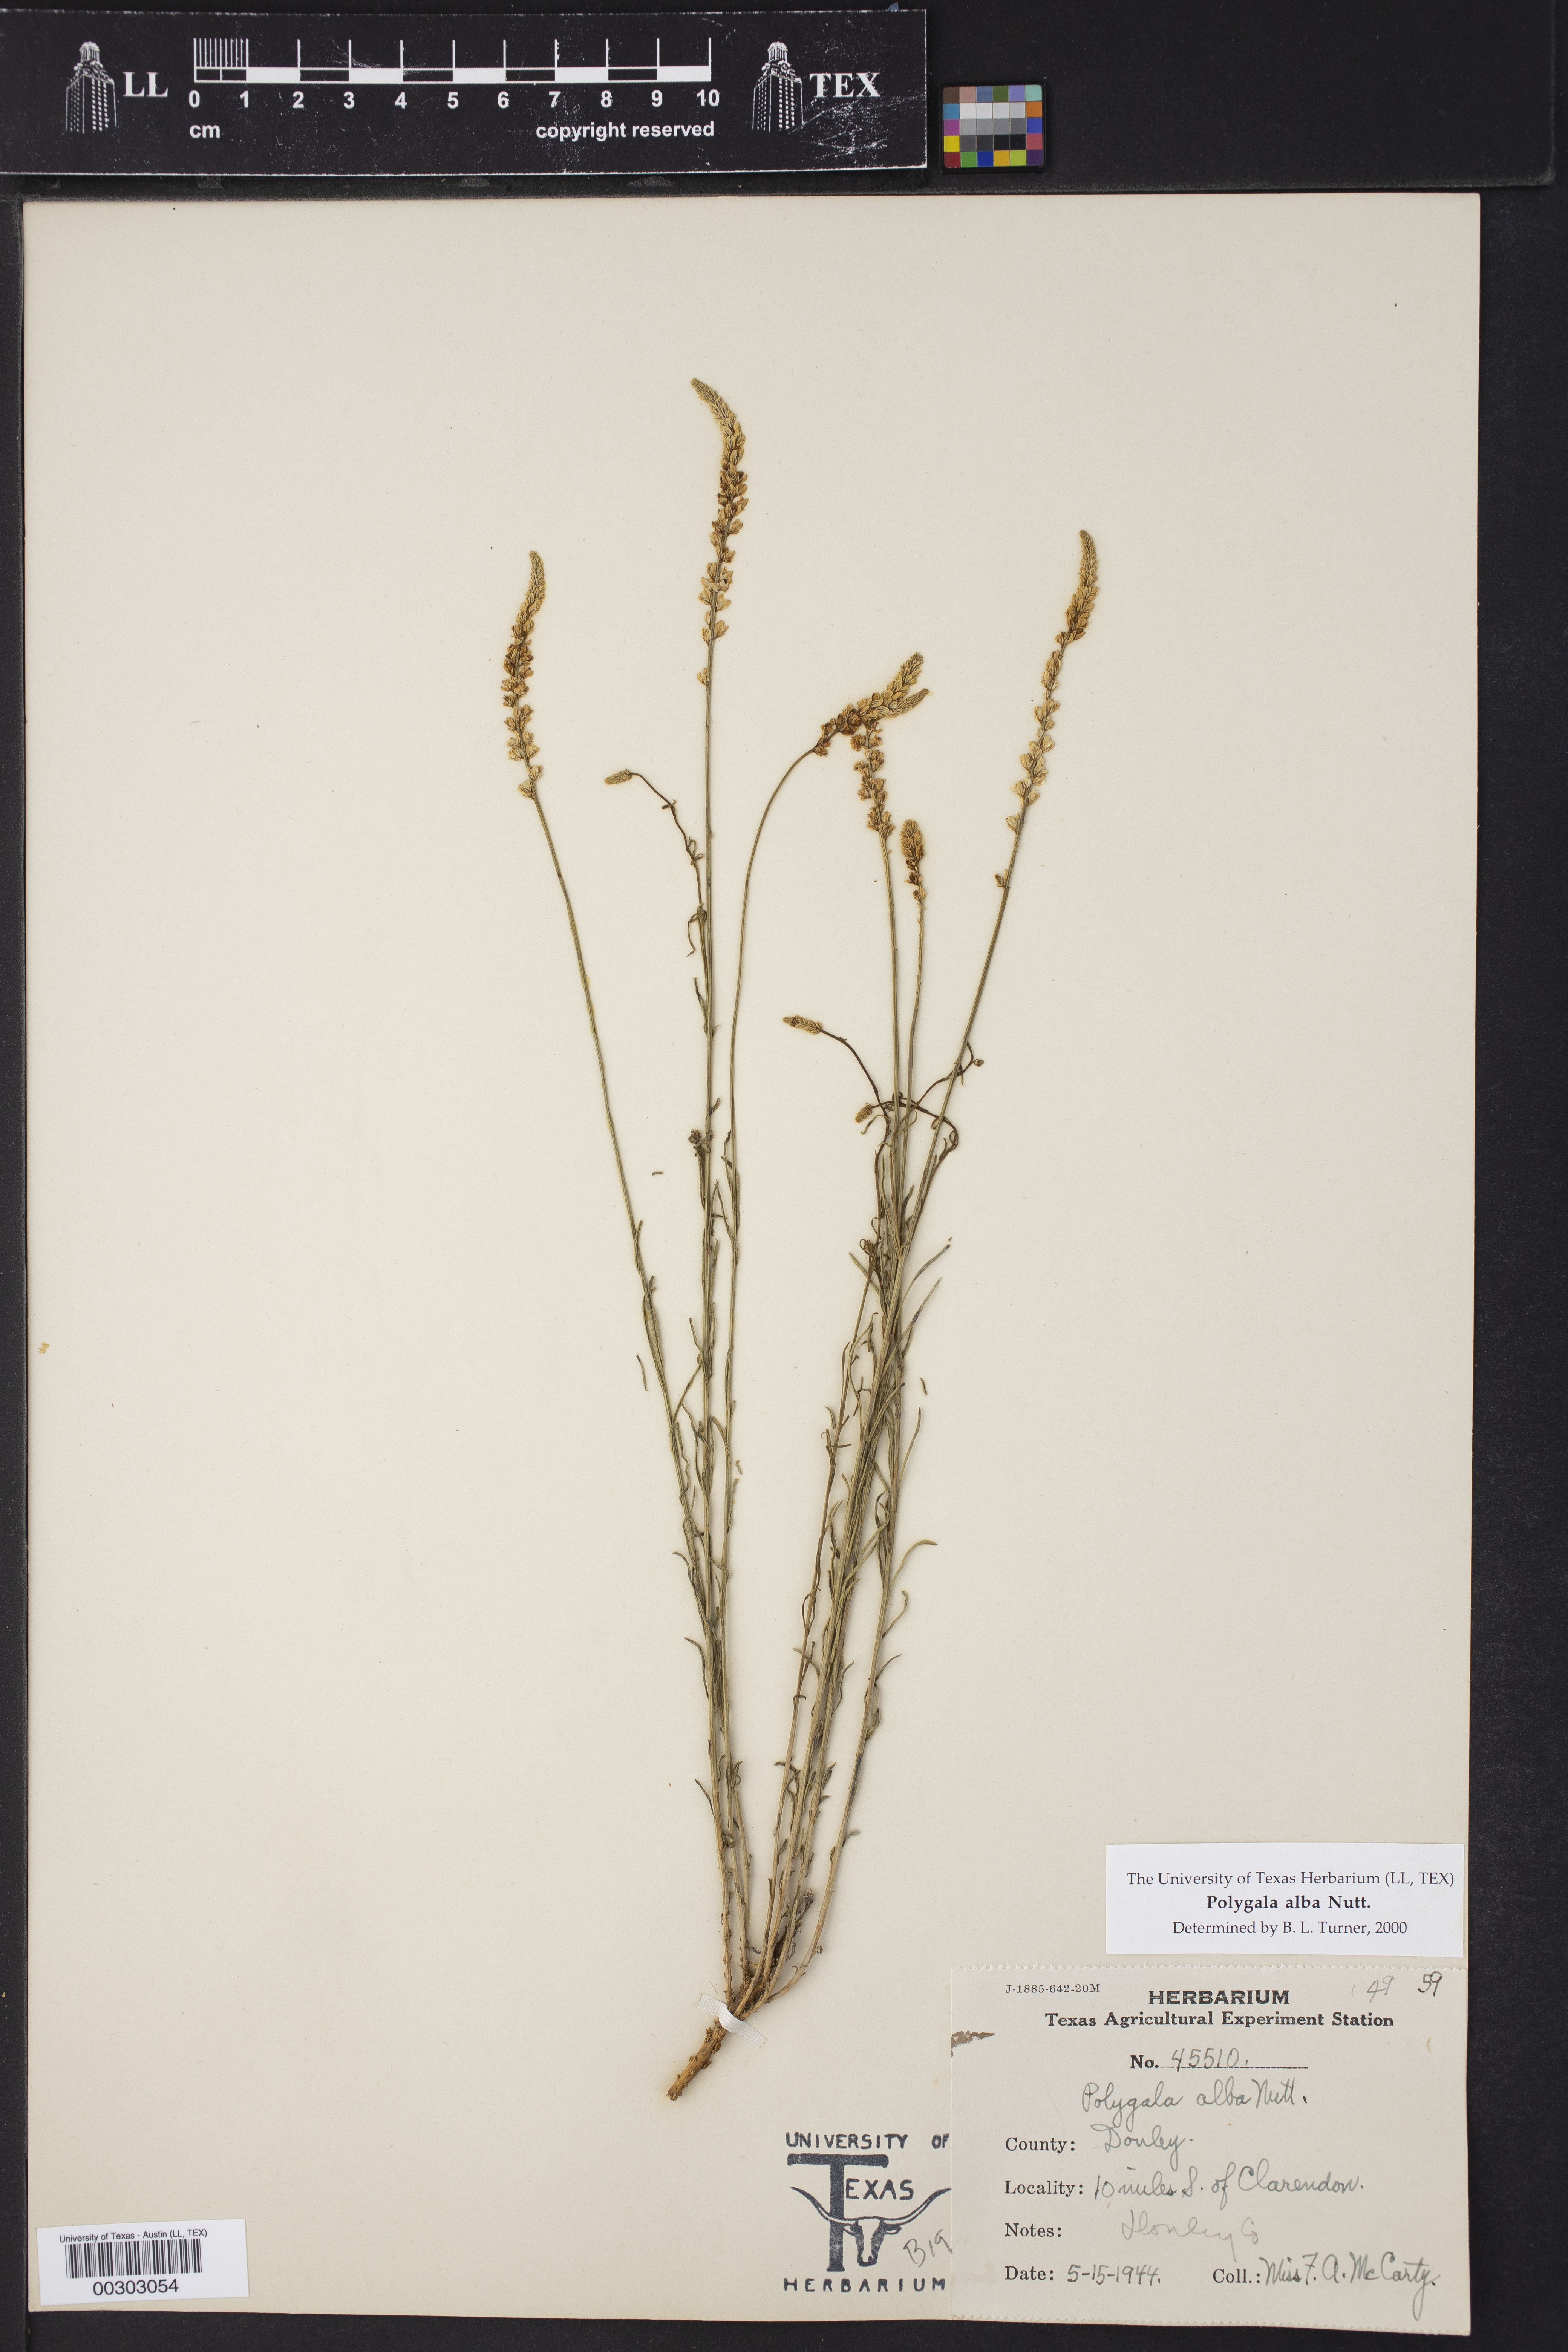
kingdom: Plantae
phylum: Tracheophyta
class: Magnoliopsida
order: Fabales
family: Polygalaceae
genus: Polygala
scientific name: Polygala alba
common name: White milkwort
